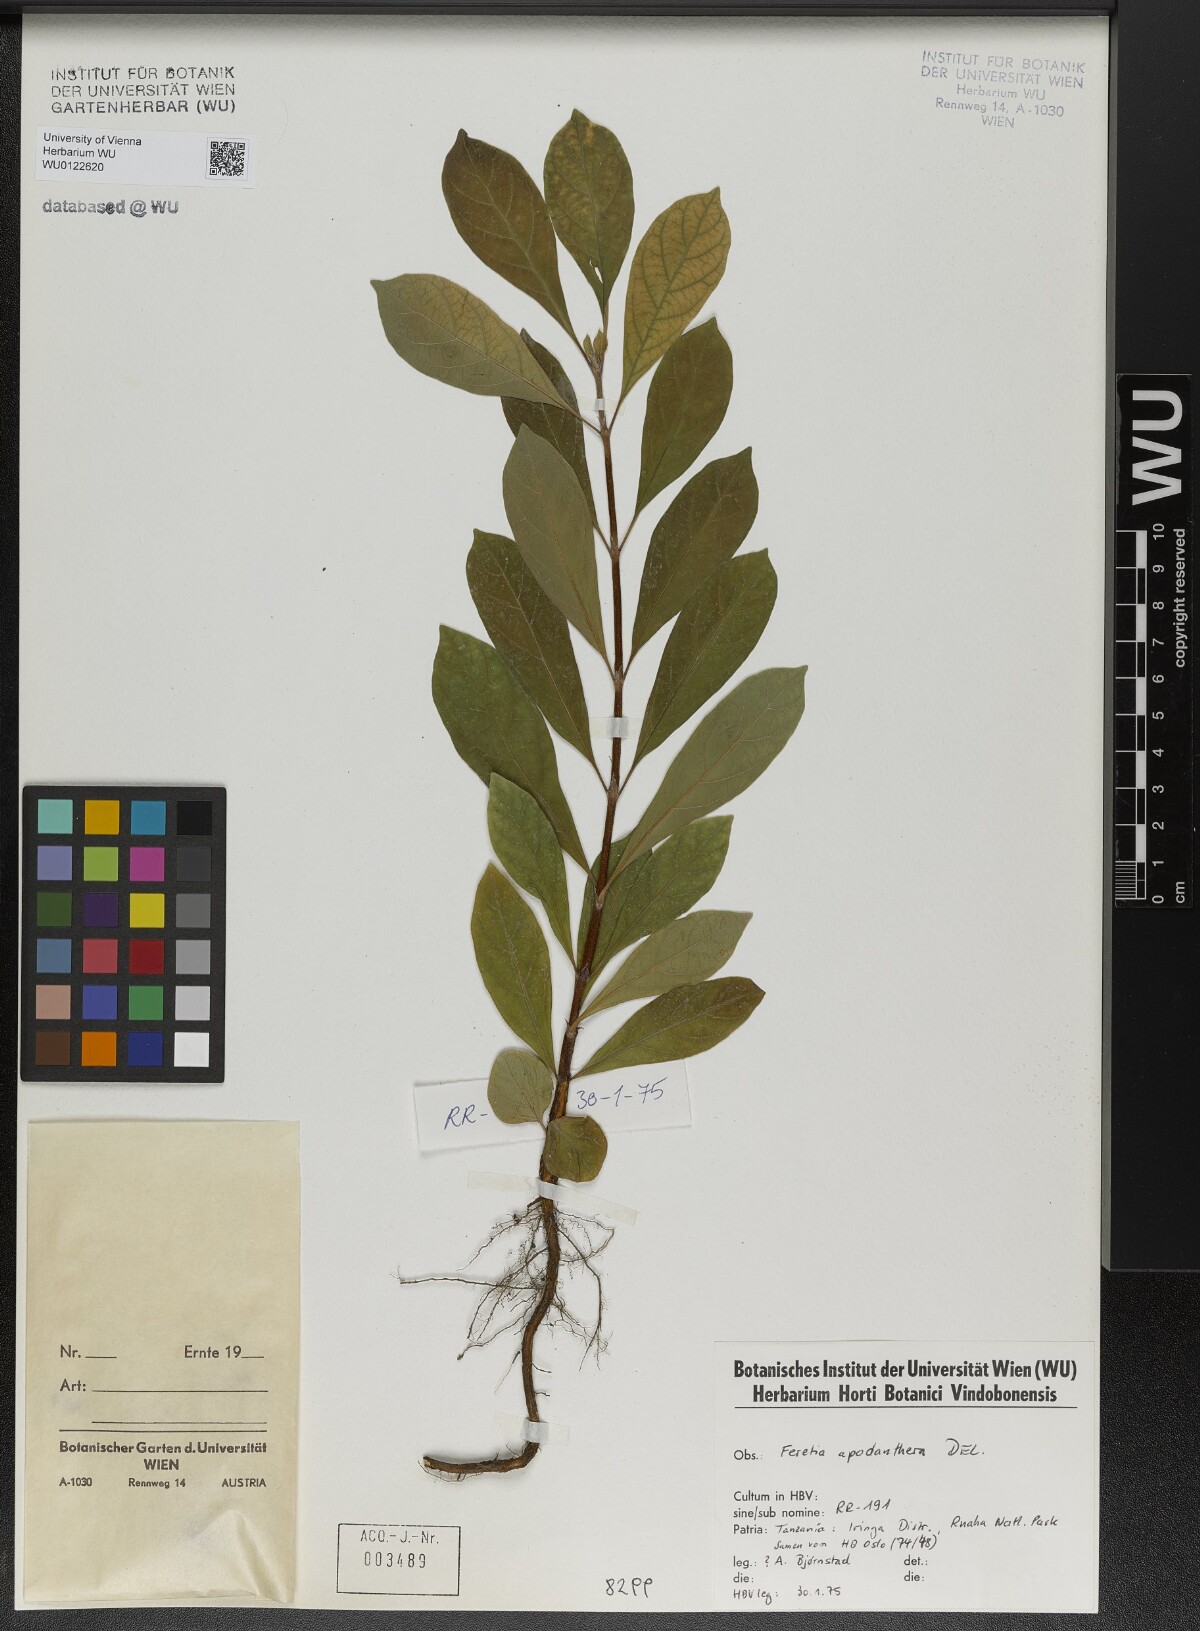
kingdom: Plantae
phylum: Tracheophyta
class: Magnoliopsida
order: Gentianales
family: Rubiaceae
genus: Feretia
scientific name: Feretia apodanthera
